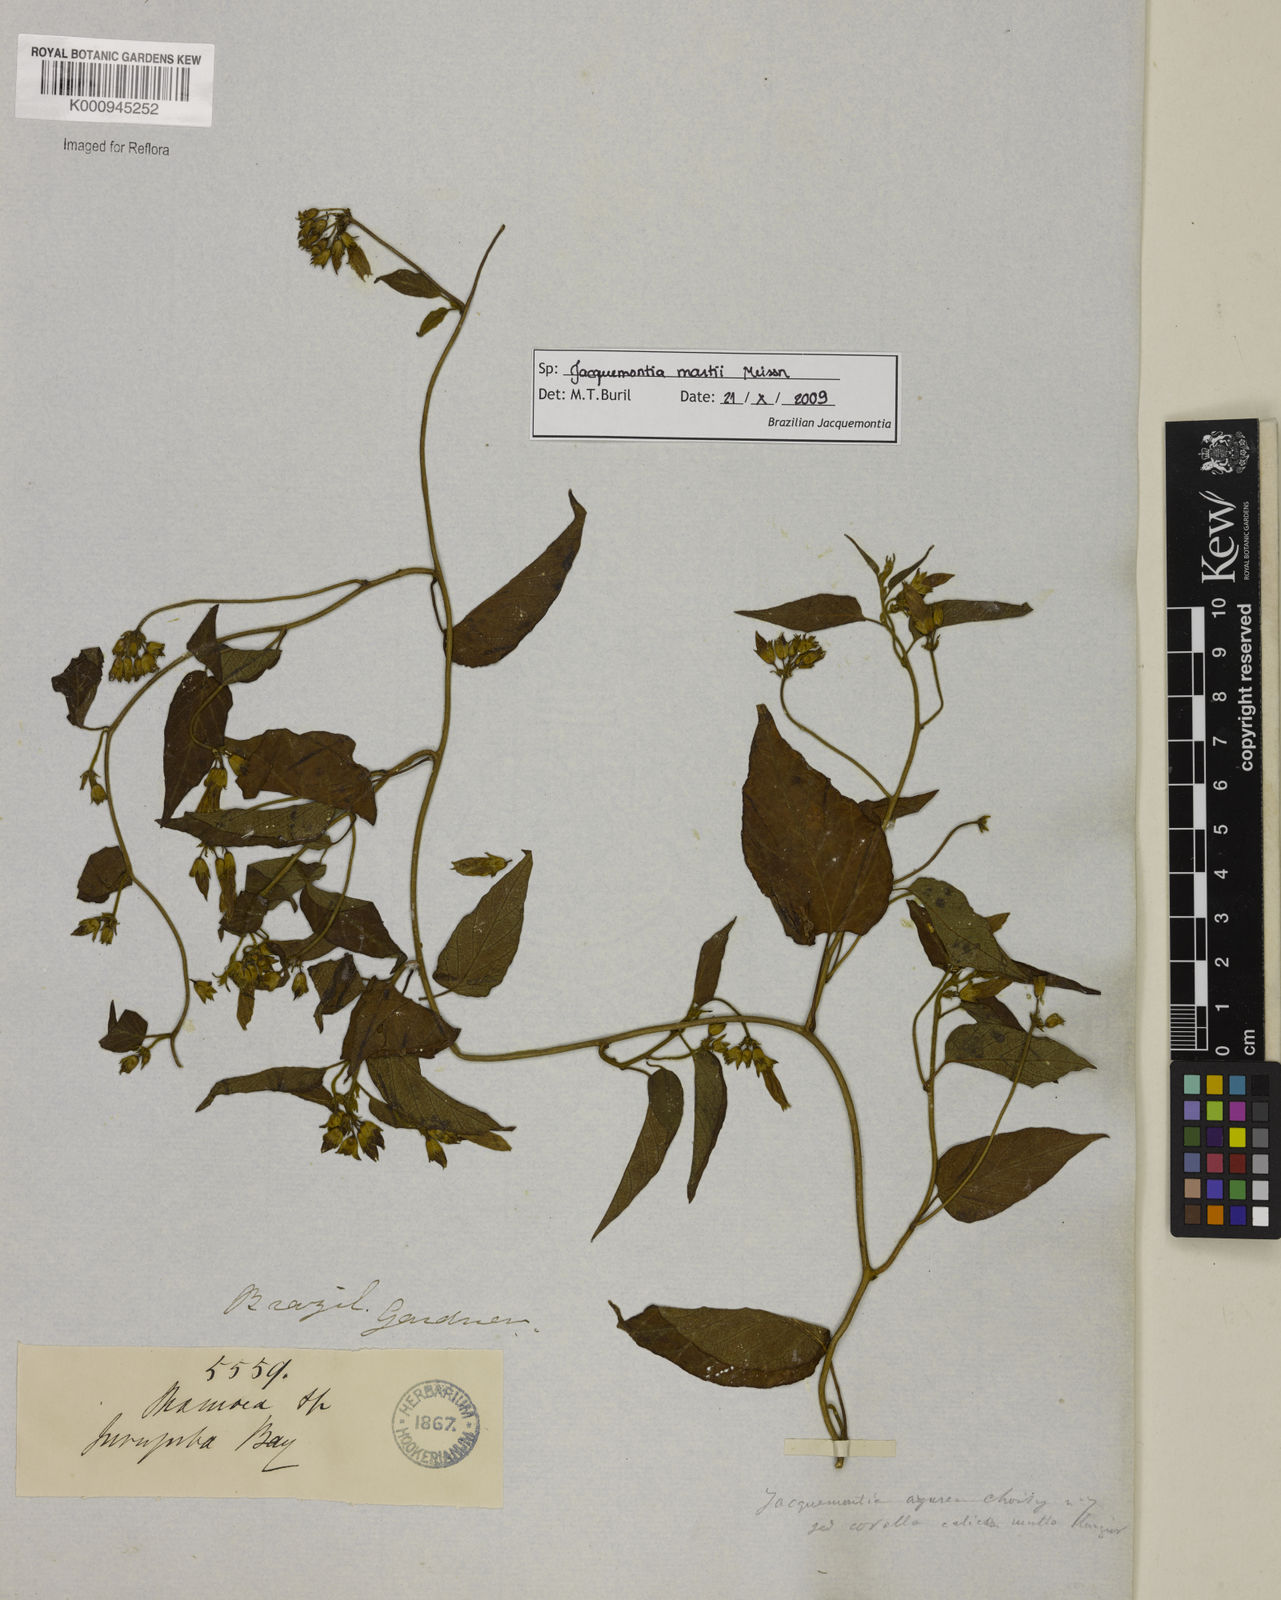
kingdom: Plantae
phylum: Tracheophyta
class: Magnoliopsida
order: Solanales
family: Convolvulaceae
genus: Jacquemontia
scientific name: Jacquemontia martii
